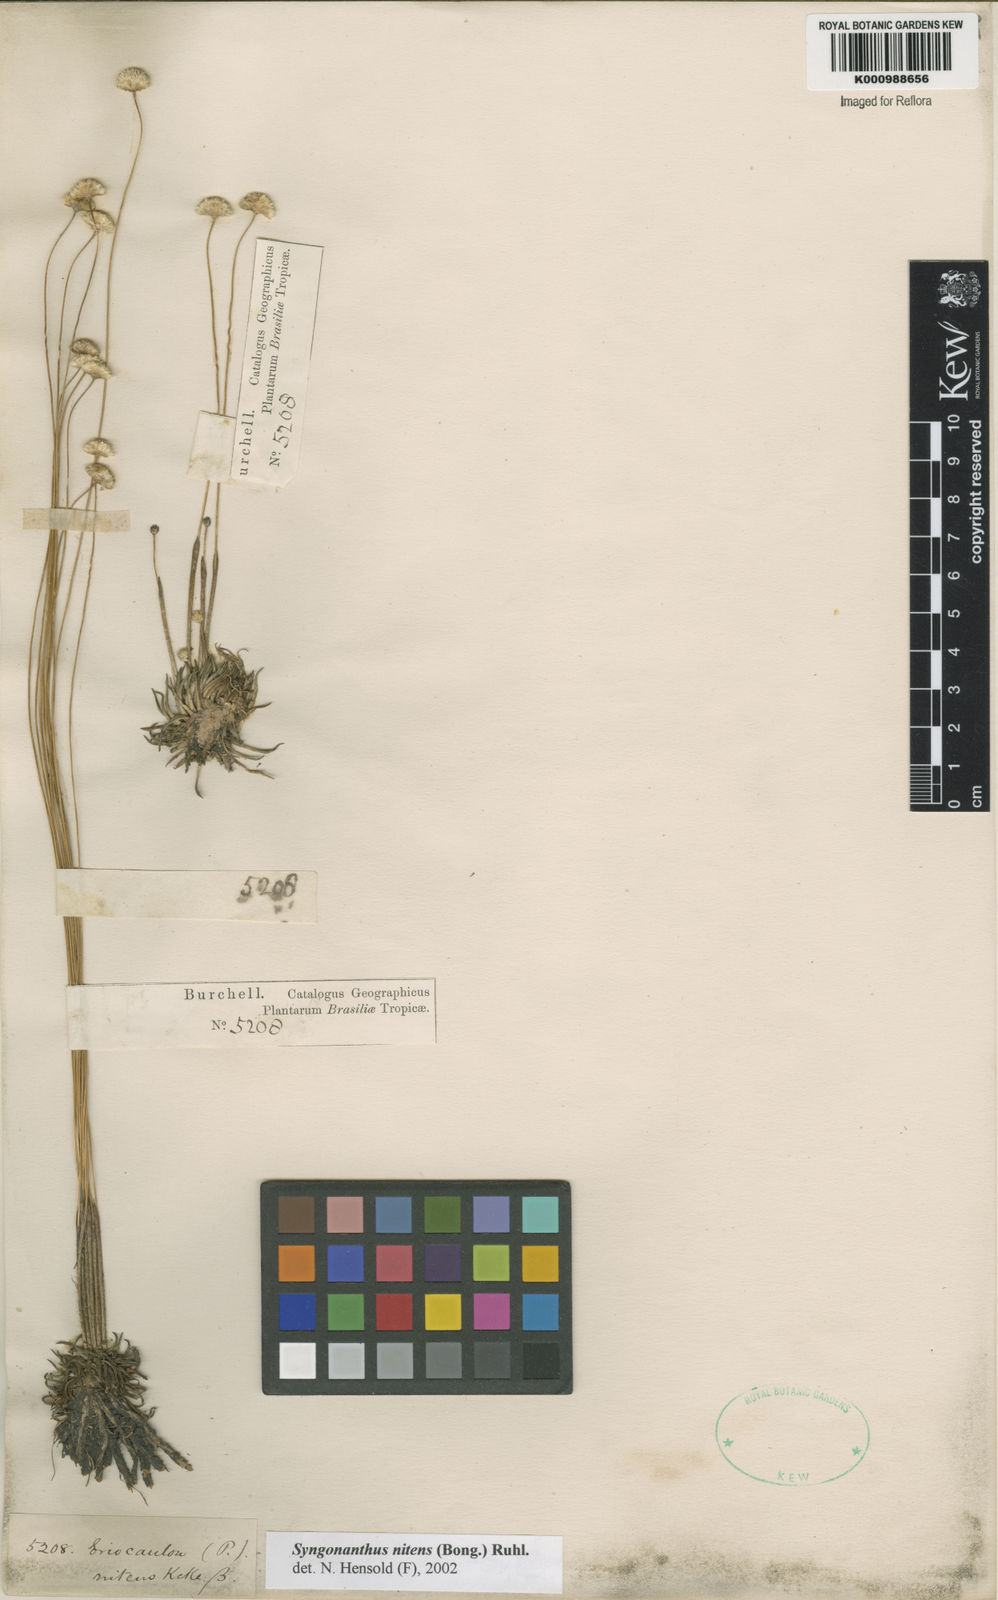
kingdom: Plantae
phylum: Tracheophyta
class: Liliopsida
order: Poales
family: Eriocaulaceae
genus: Syngonanthus
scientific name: Syngonanthus nitens
